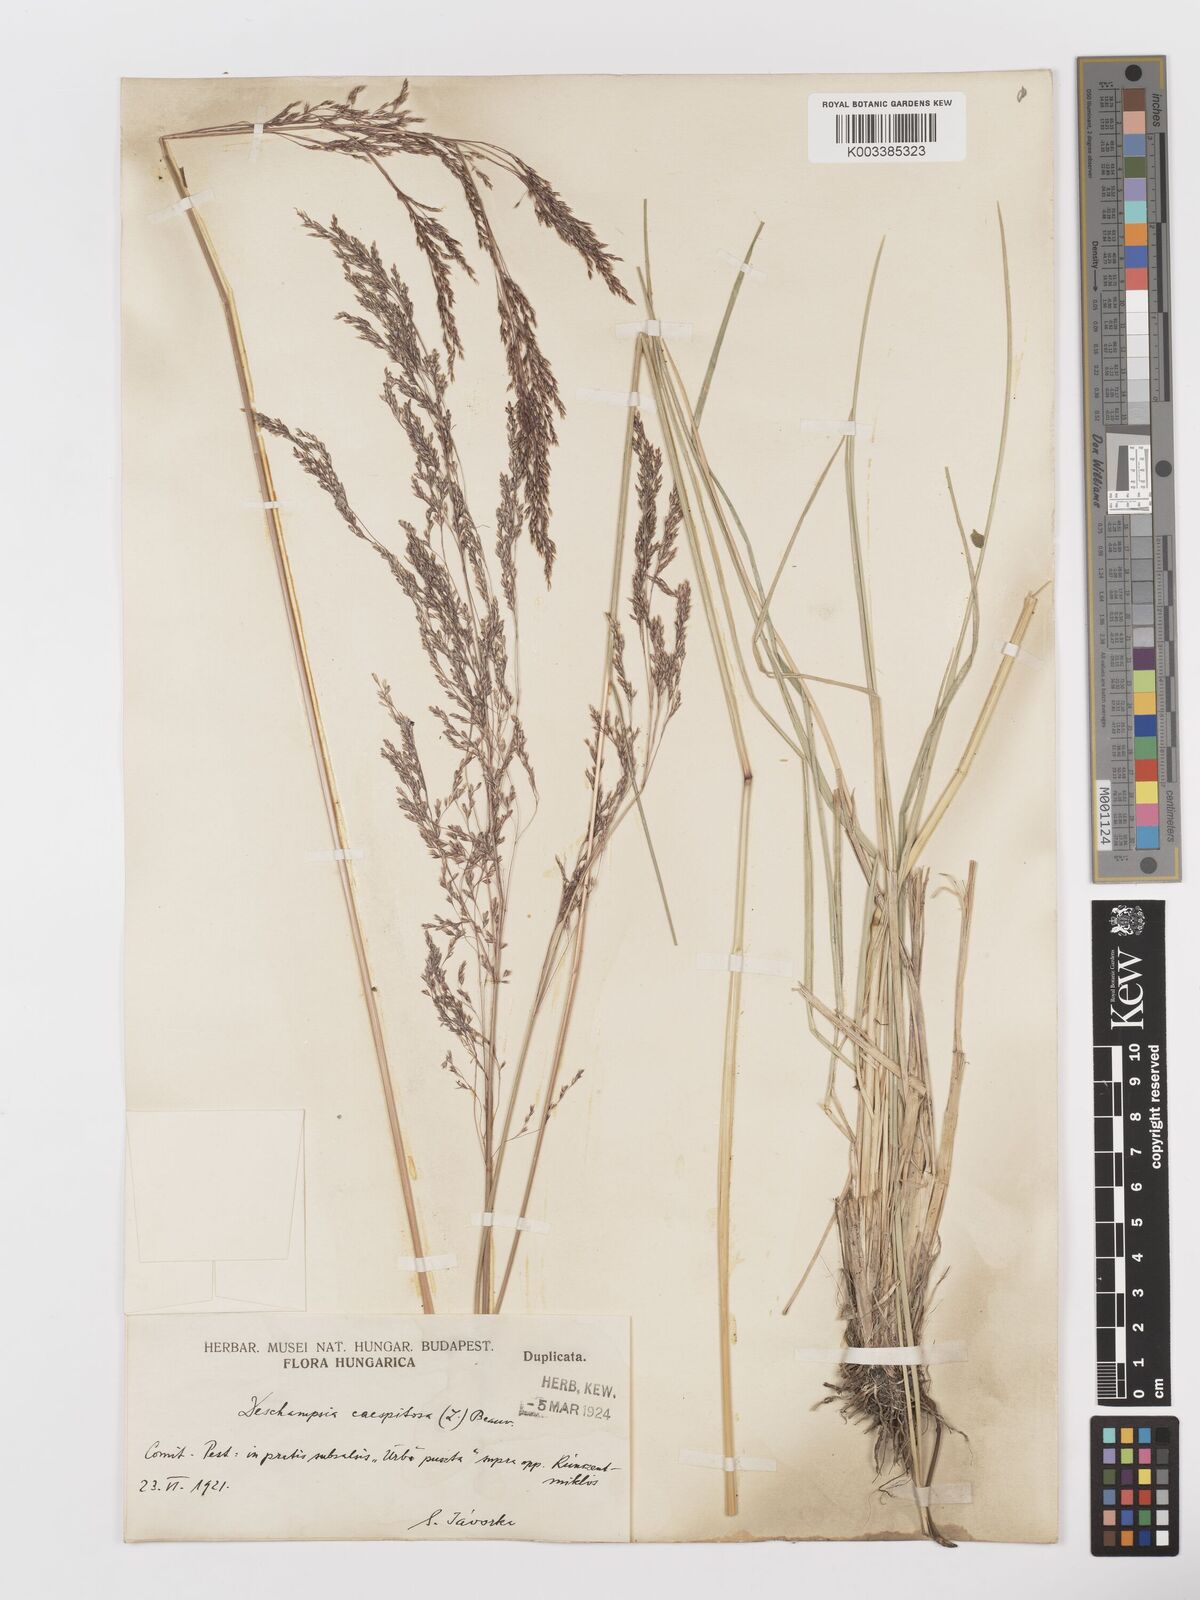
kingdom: Plantae
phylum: Tracheophyta
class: Liliopsida
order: Poales
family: Poaceae
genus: Deschampsia
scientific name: Deschampsia cespitosa
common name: Tufted hair-grass
